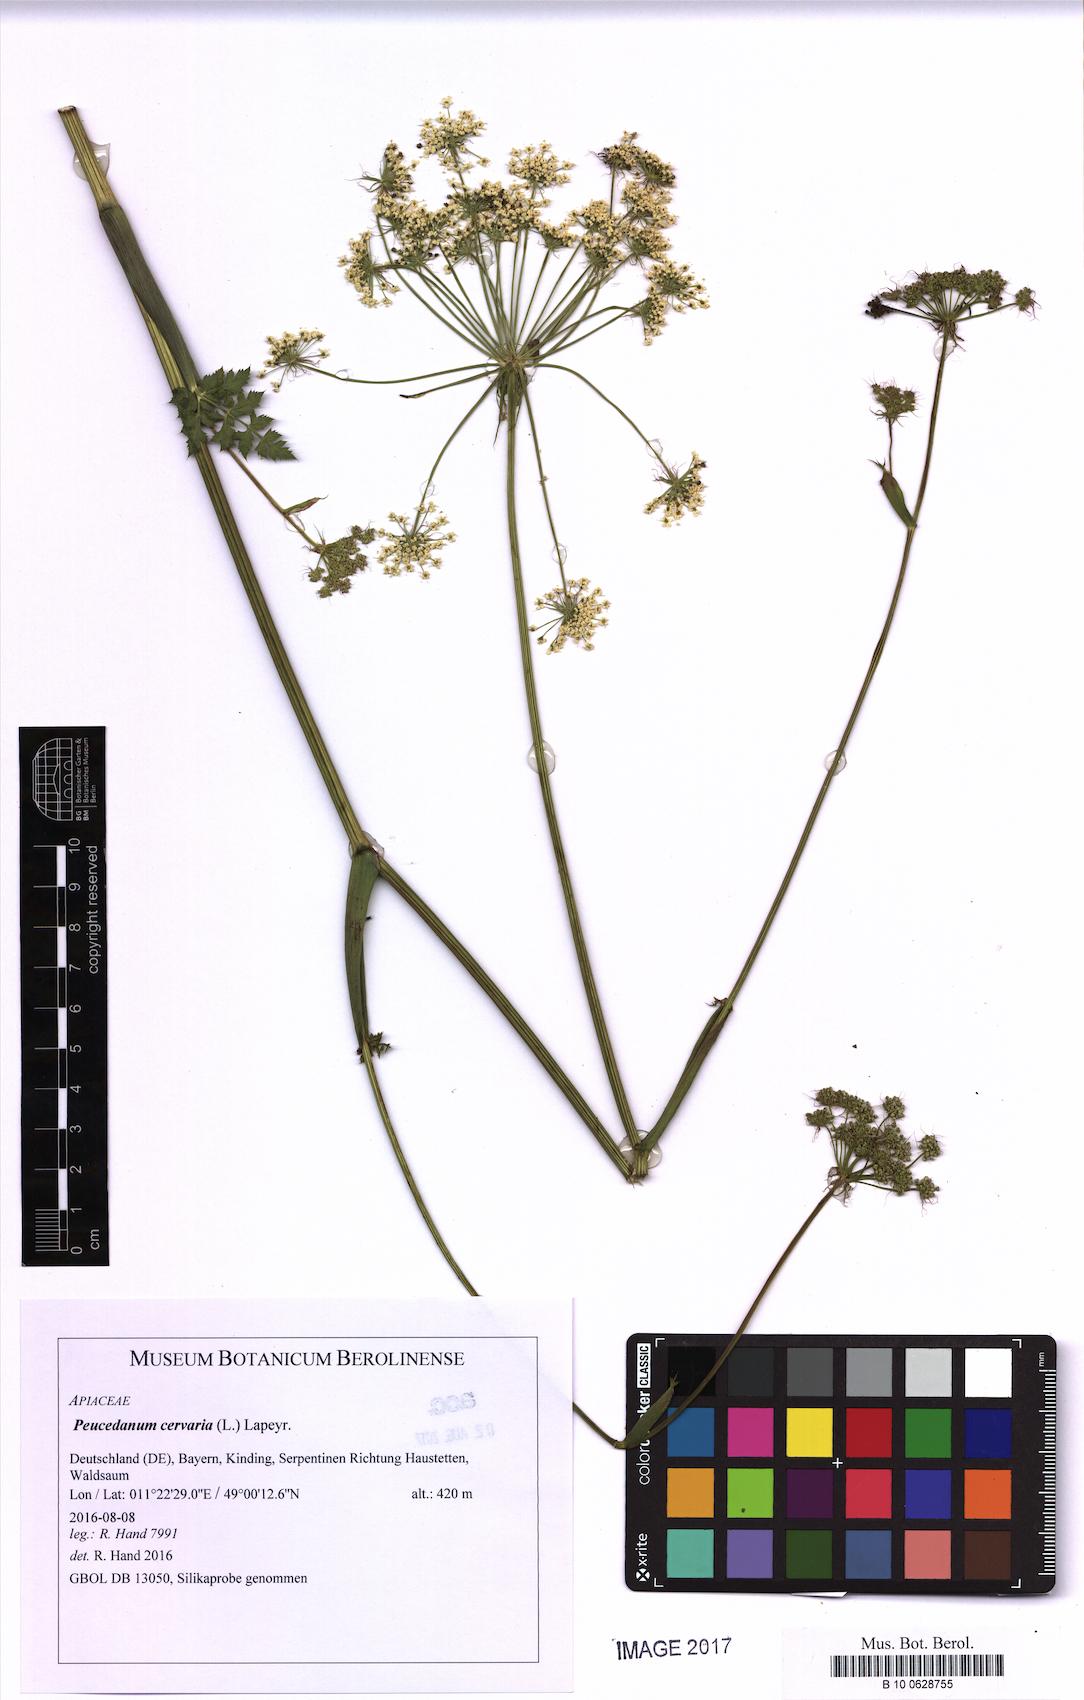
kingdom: Plantae
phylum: Tracheophyta
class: Magnoliopsida
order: Apiales
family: Apiaceae
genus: Cervaria
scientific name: Cervaria rivini
